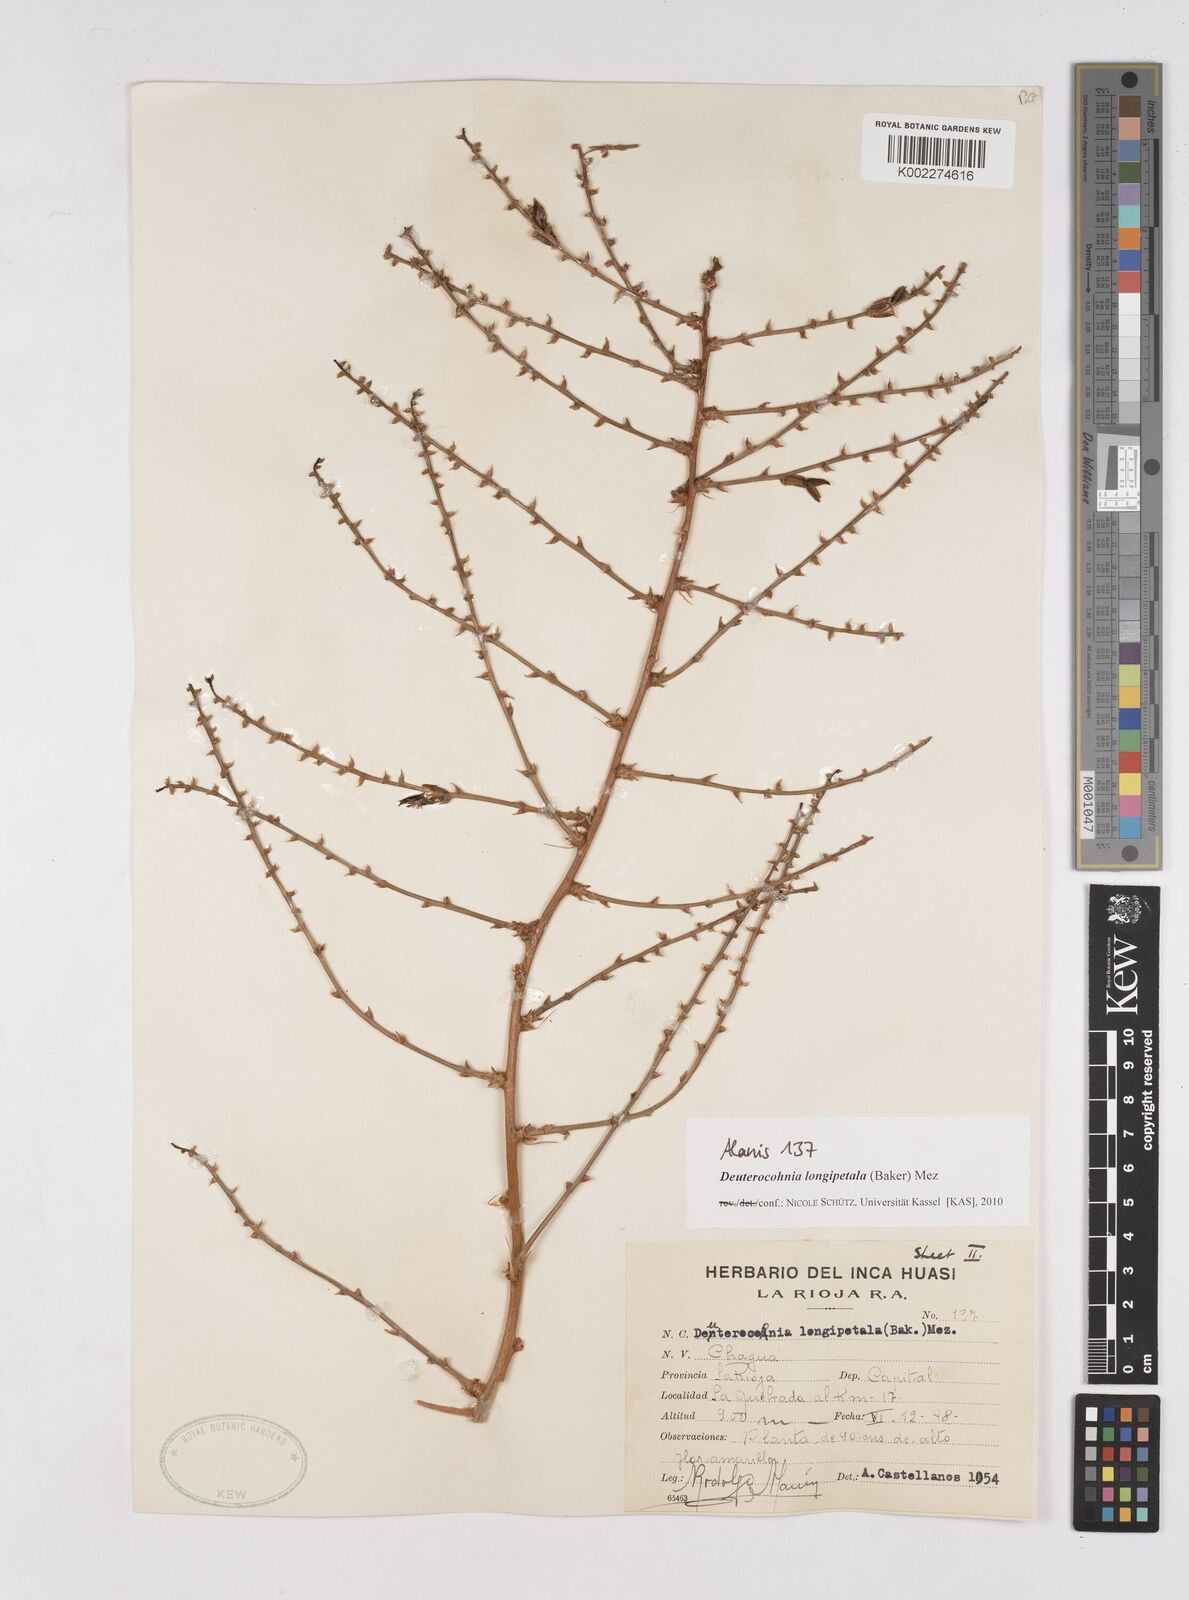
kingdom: Plantae
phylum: Tracheophyta
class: Liliopsida
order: Poales
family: Bromeliaceae
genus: Deuterocohnia
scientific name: Deuterocohnia longipetala
